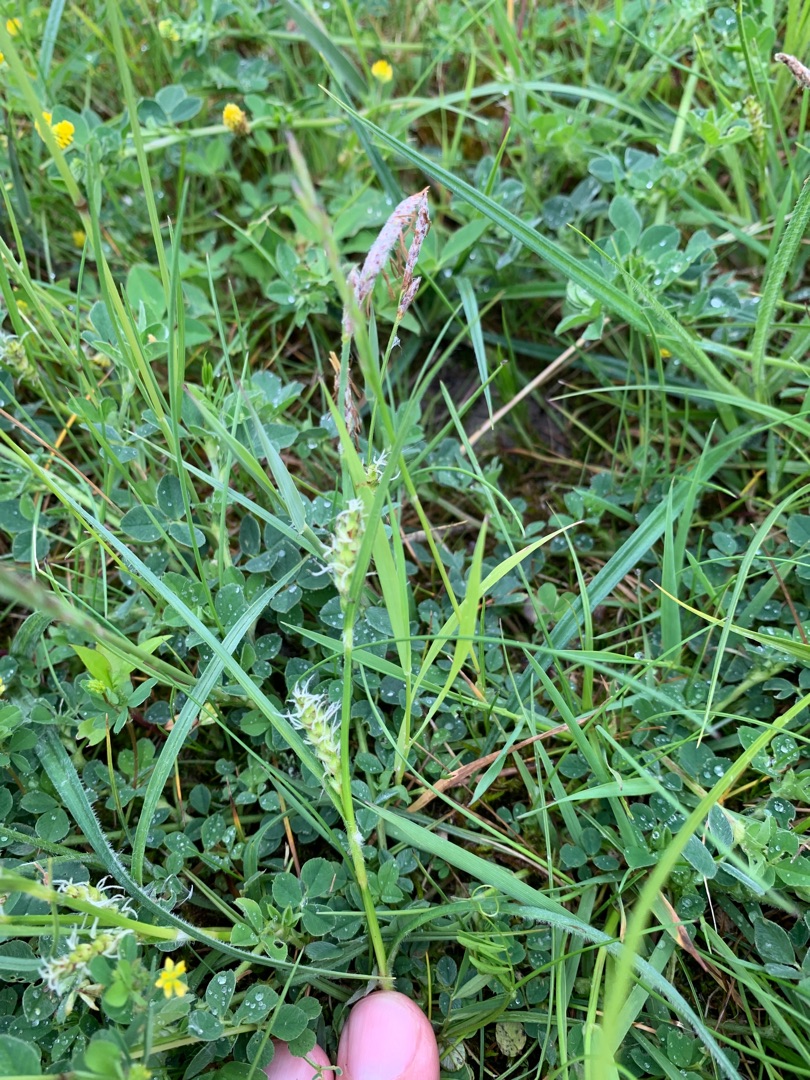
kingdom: Plantae
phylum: Tracheophyta
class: Liliopsida
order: Poales
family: Cyperaceae
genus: Carex
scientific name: Carex hirta
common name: Håret star
